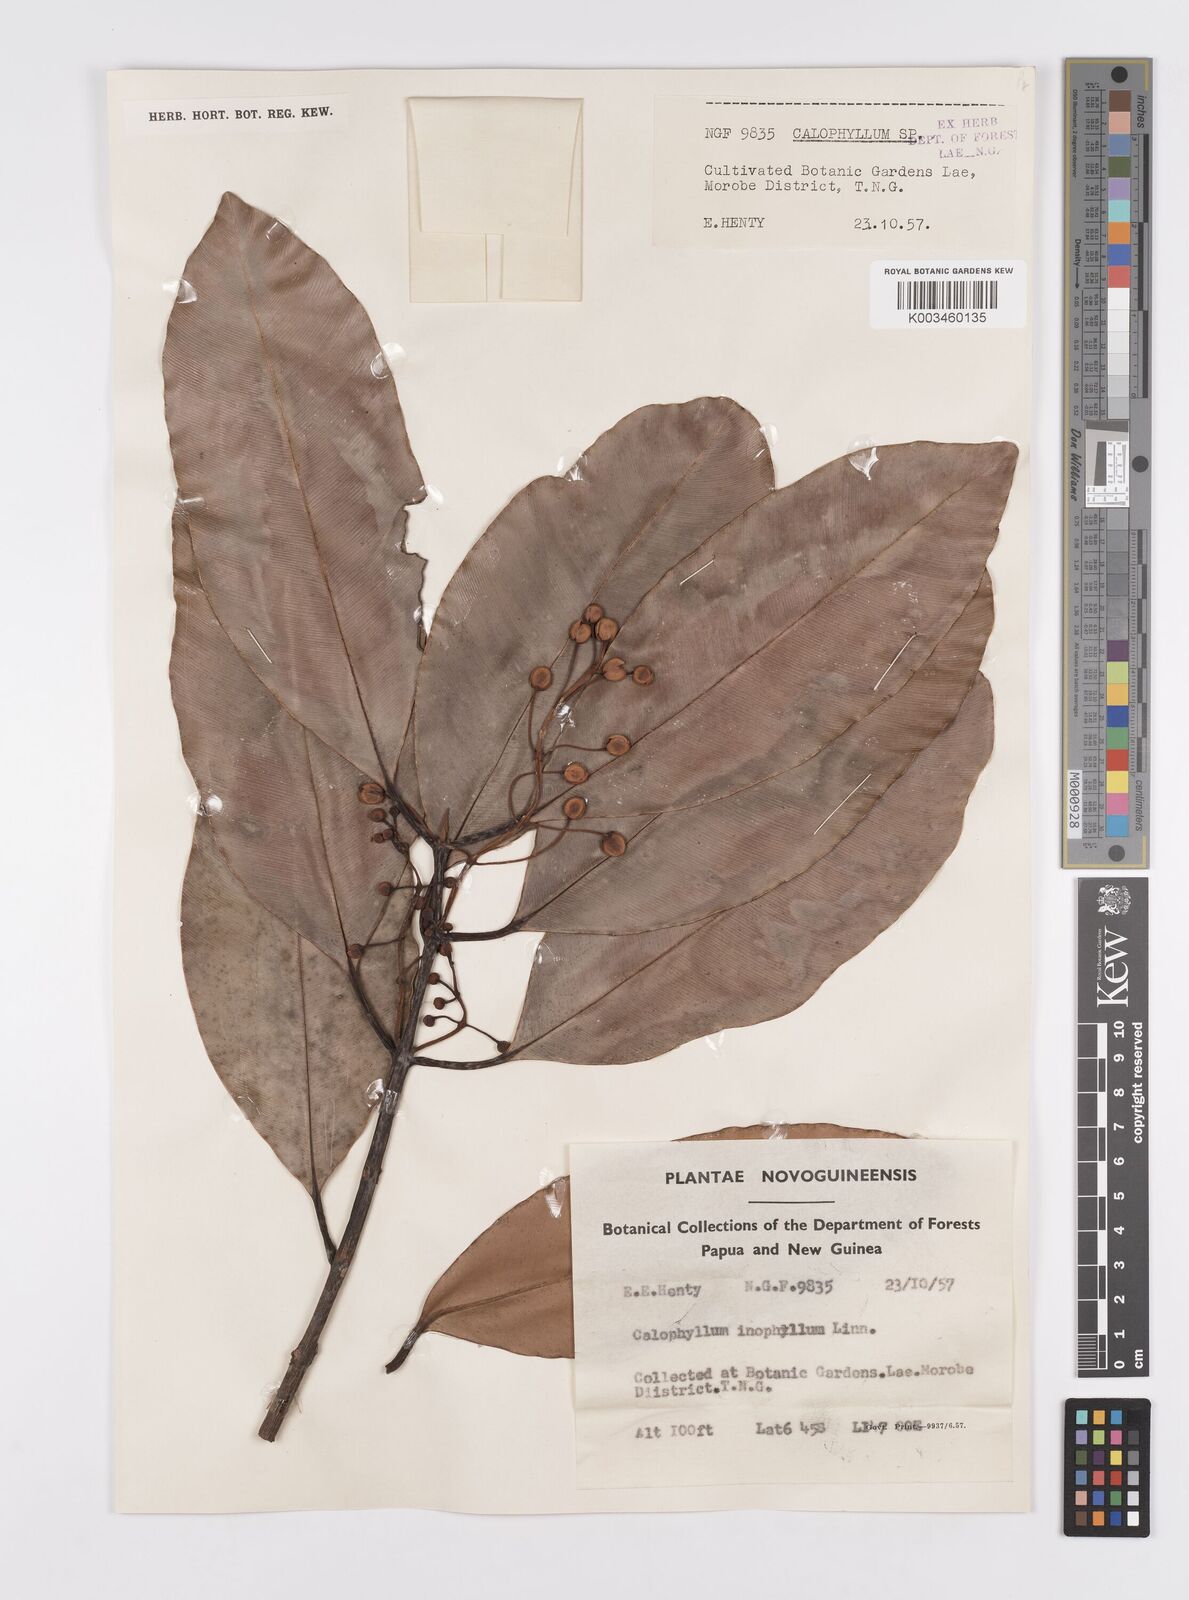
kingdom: Plantae
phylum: Tracheophyta
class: Magnoliopsida
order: Malpighiales
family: Calophyllaceae
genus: Calophyllum
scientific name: Calophyllum inophyllum
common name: Alexandrian laurel
